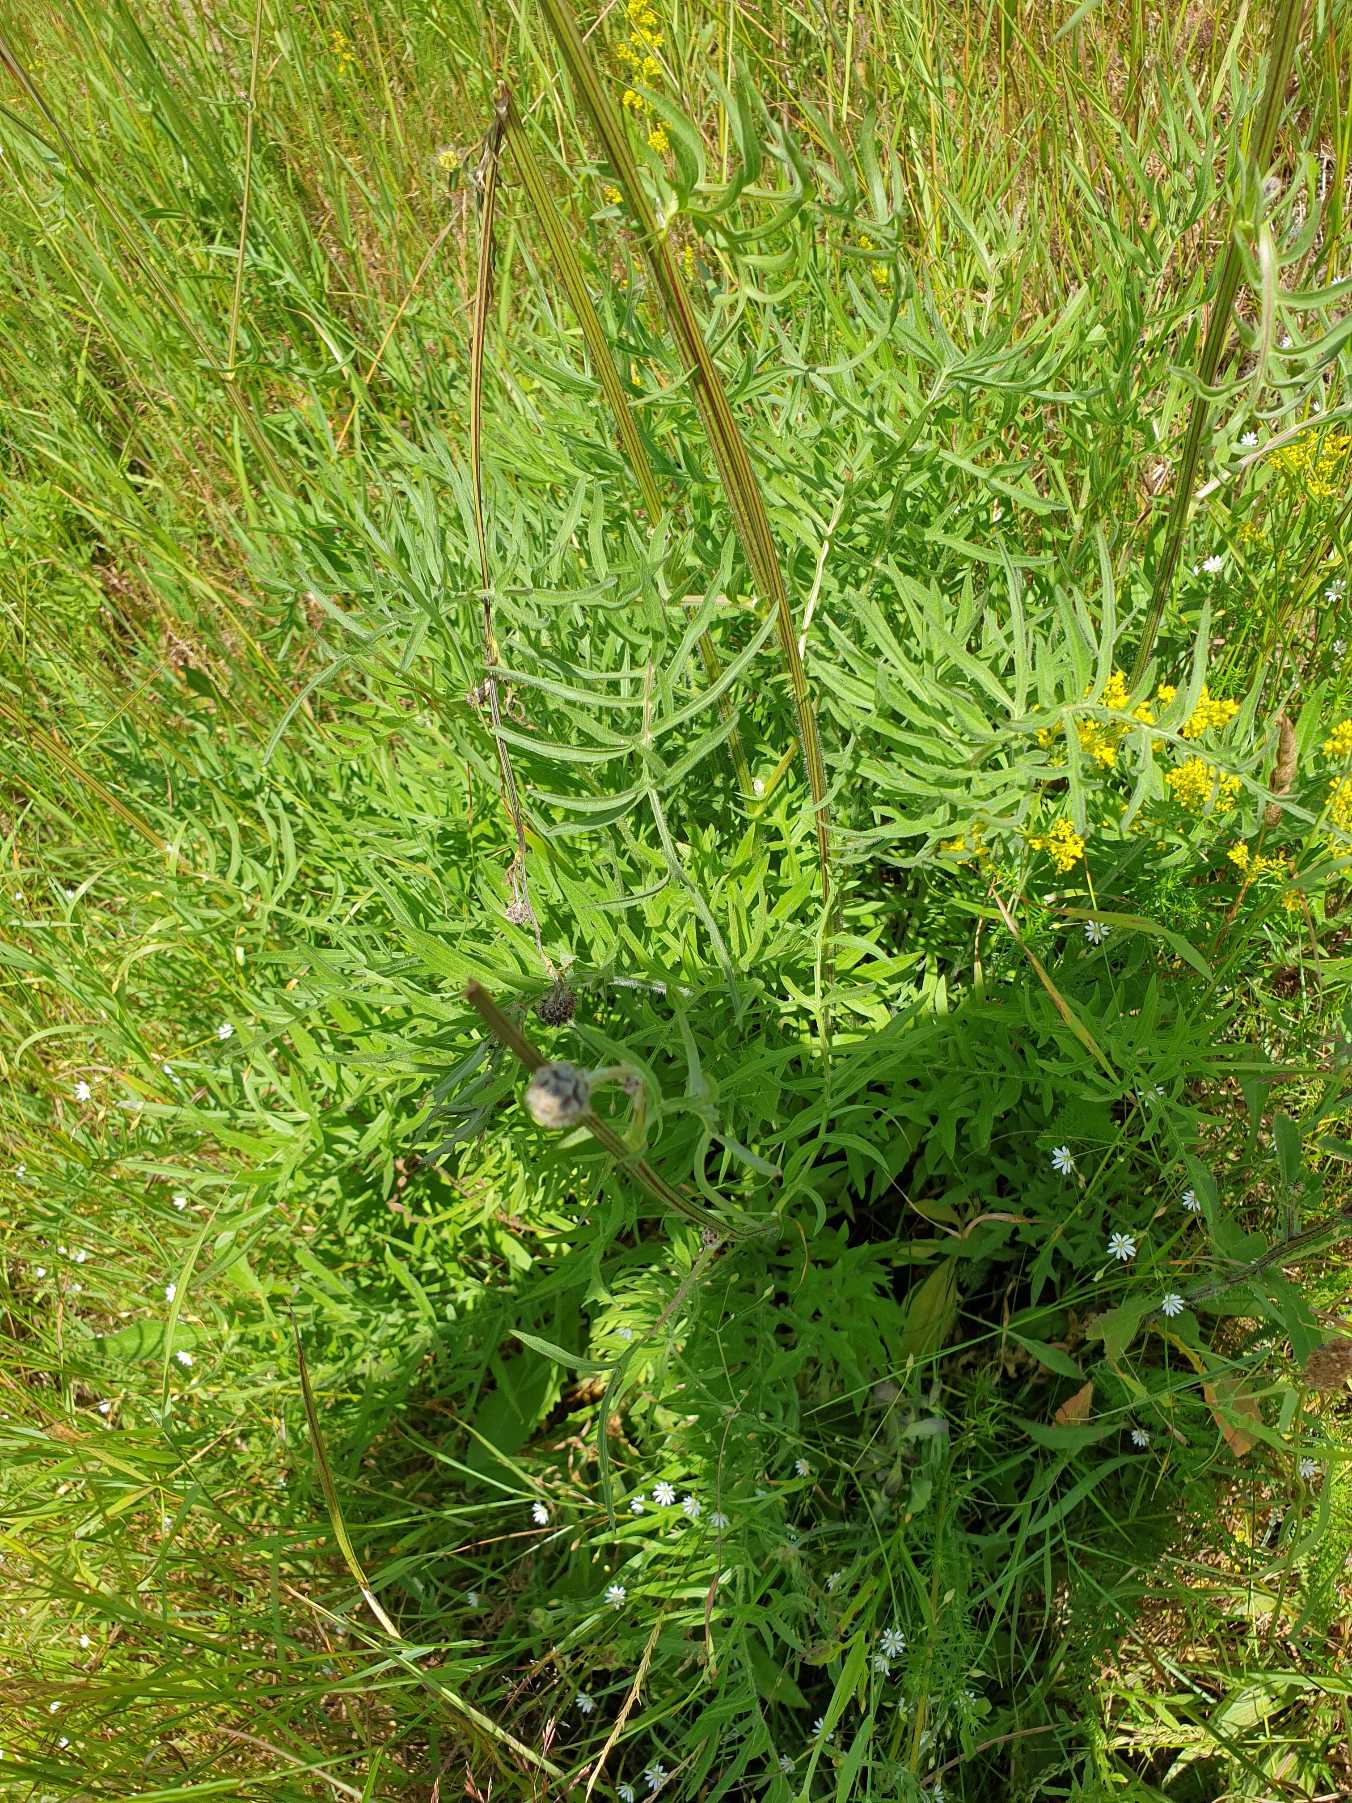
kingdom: Plantae
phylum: Tracheophyta
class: Magnoliopsida
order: Asterales
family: Asteraceae
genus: Centaurea
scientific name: Centaurea scabiosa
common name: Stor knopurt
